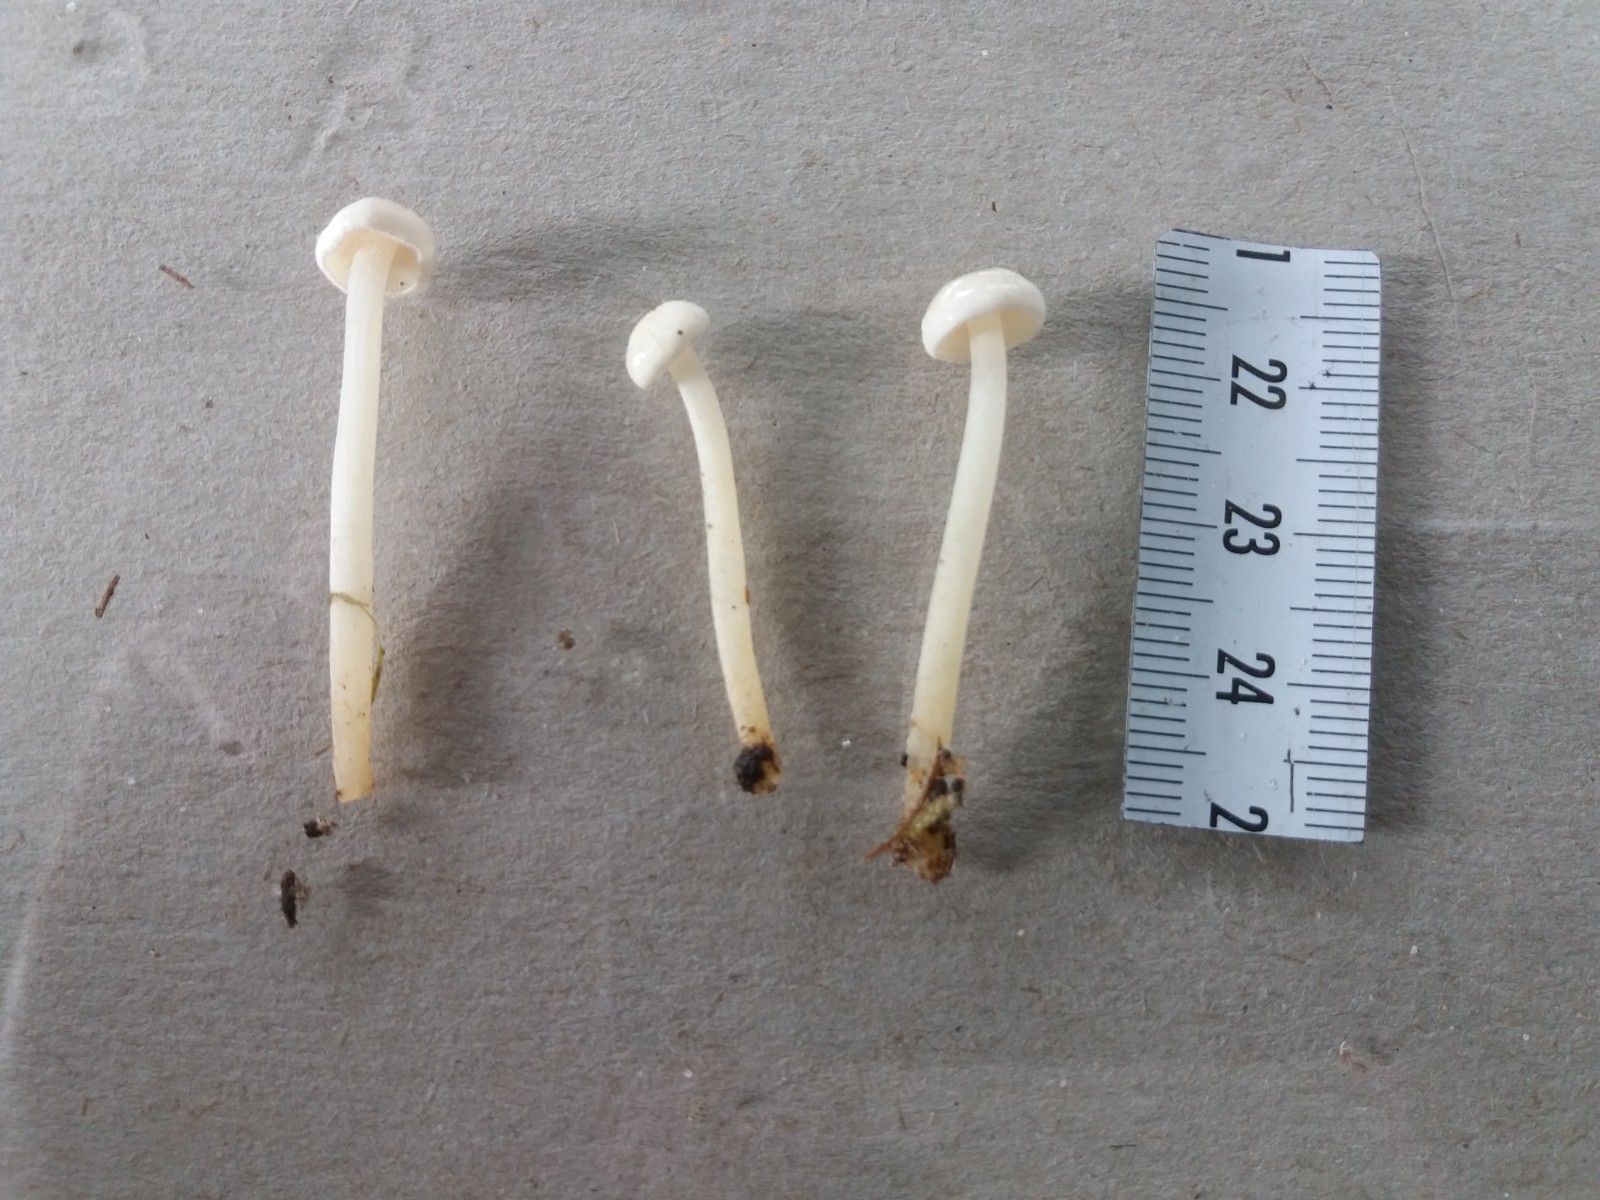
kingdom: Fungi
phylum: Basidiomycota
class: Agaricomycetes
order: Agaricales
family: Entolomataceae
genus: Entoloma
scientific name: Entoloma sericellum
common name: silkehvid rødblad
